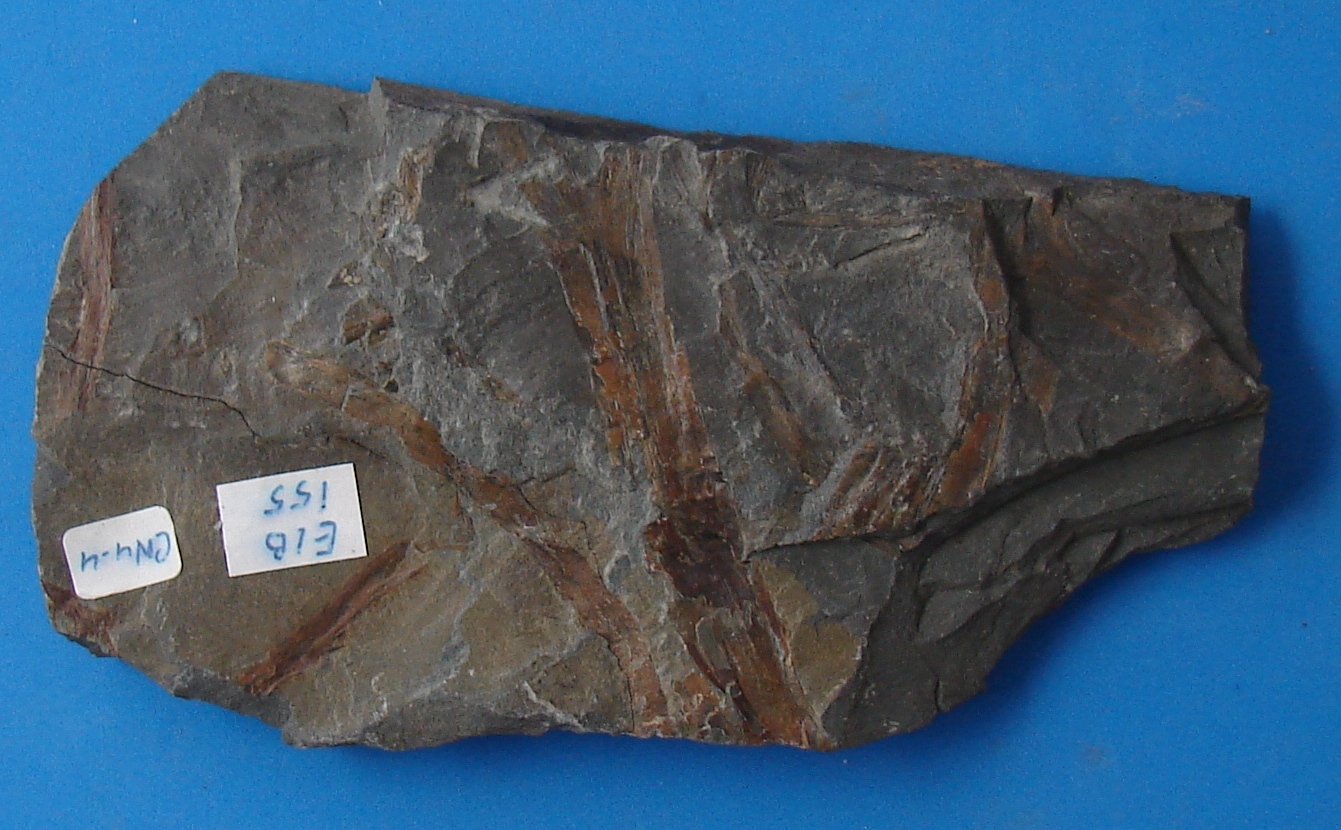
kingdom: Plantae
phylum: Tracheophyta
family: Rhyniaceae
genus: Stockmansella
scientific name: Stockmansella
